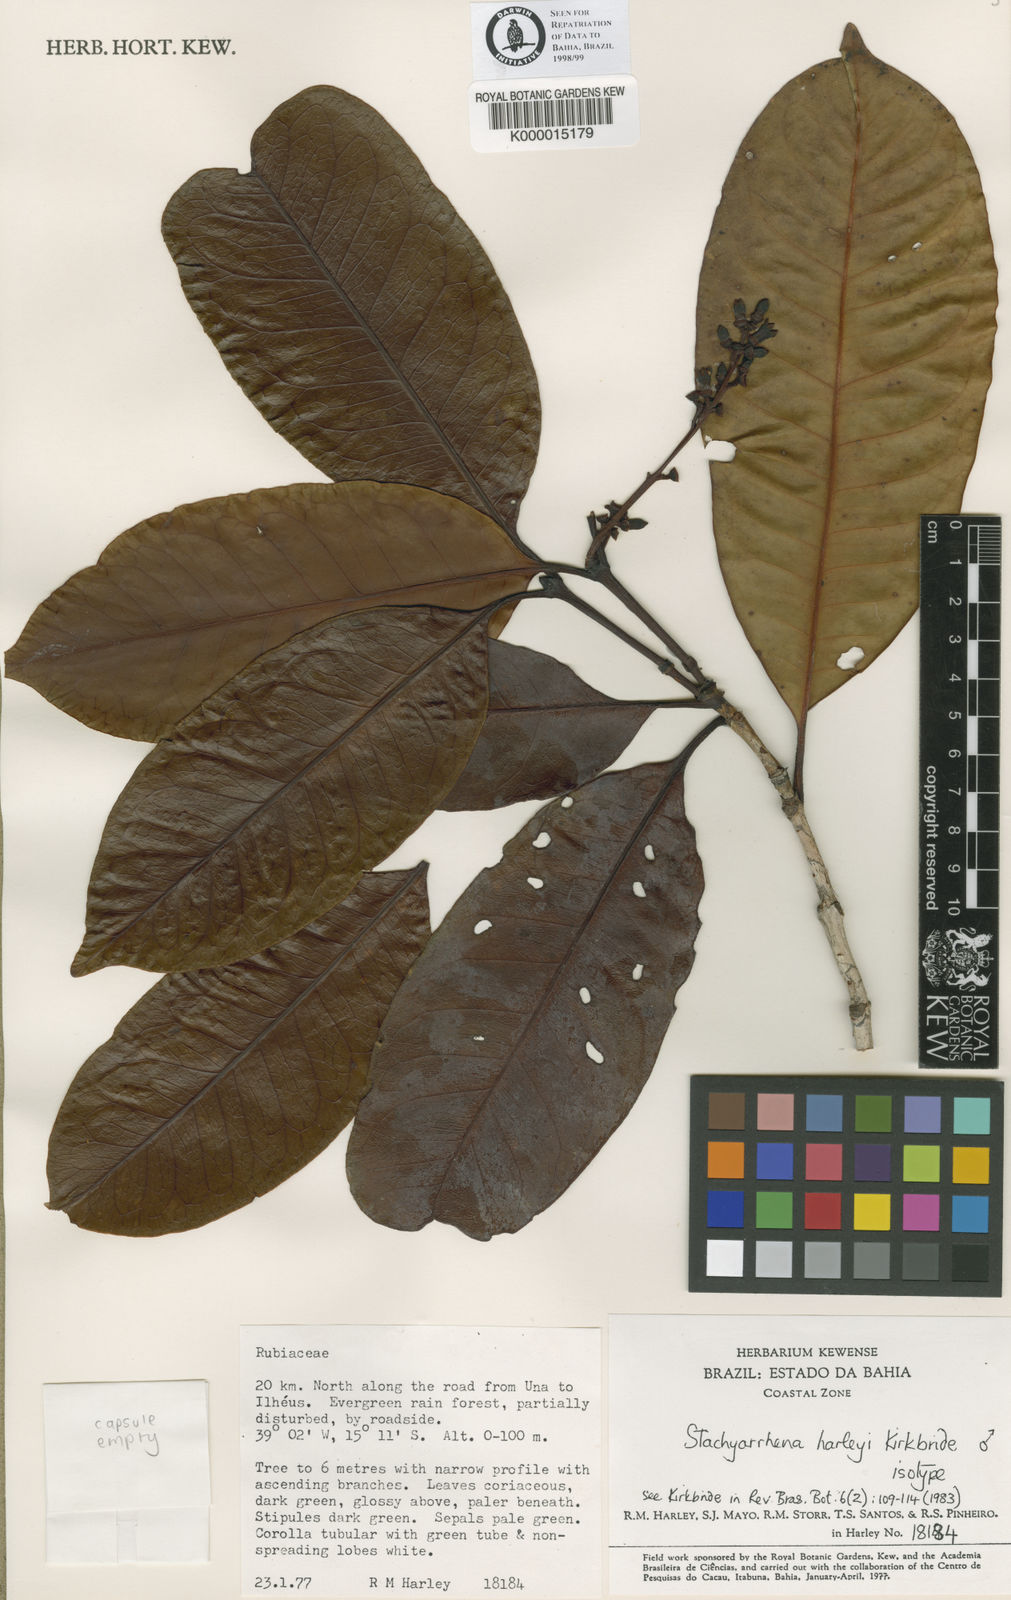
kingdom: Plantae
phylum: Tracheophyta
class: Magnoliopsida
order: Gentianales
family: Rubiaceae
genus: Stachyarrhena
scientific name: Stachyarrhena harleyi
